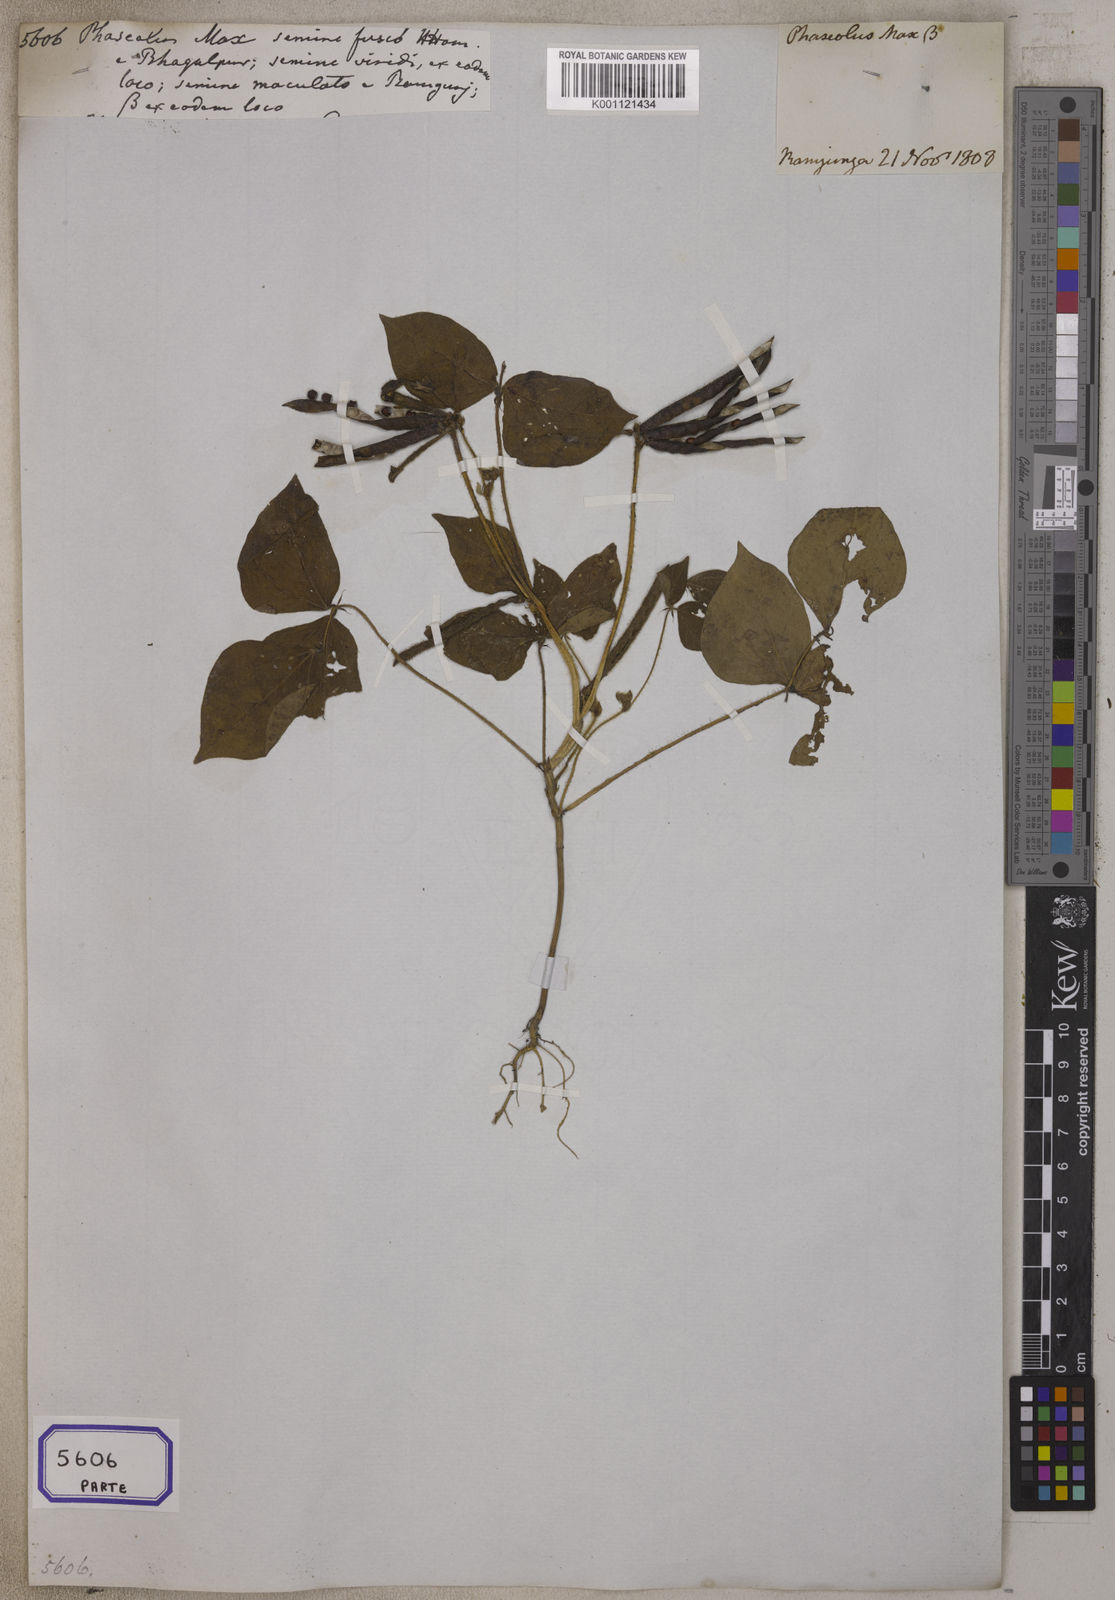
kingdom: Plantae
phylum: Tracheophyta
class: Magnoliopsida
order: Fabales
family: Fabaceae
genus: Glycine
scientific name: Glycine max
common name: Soya-bean
